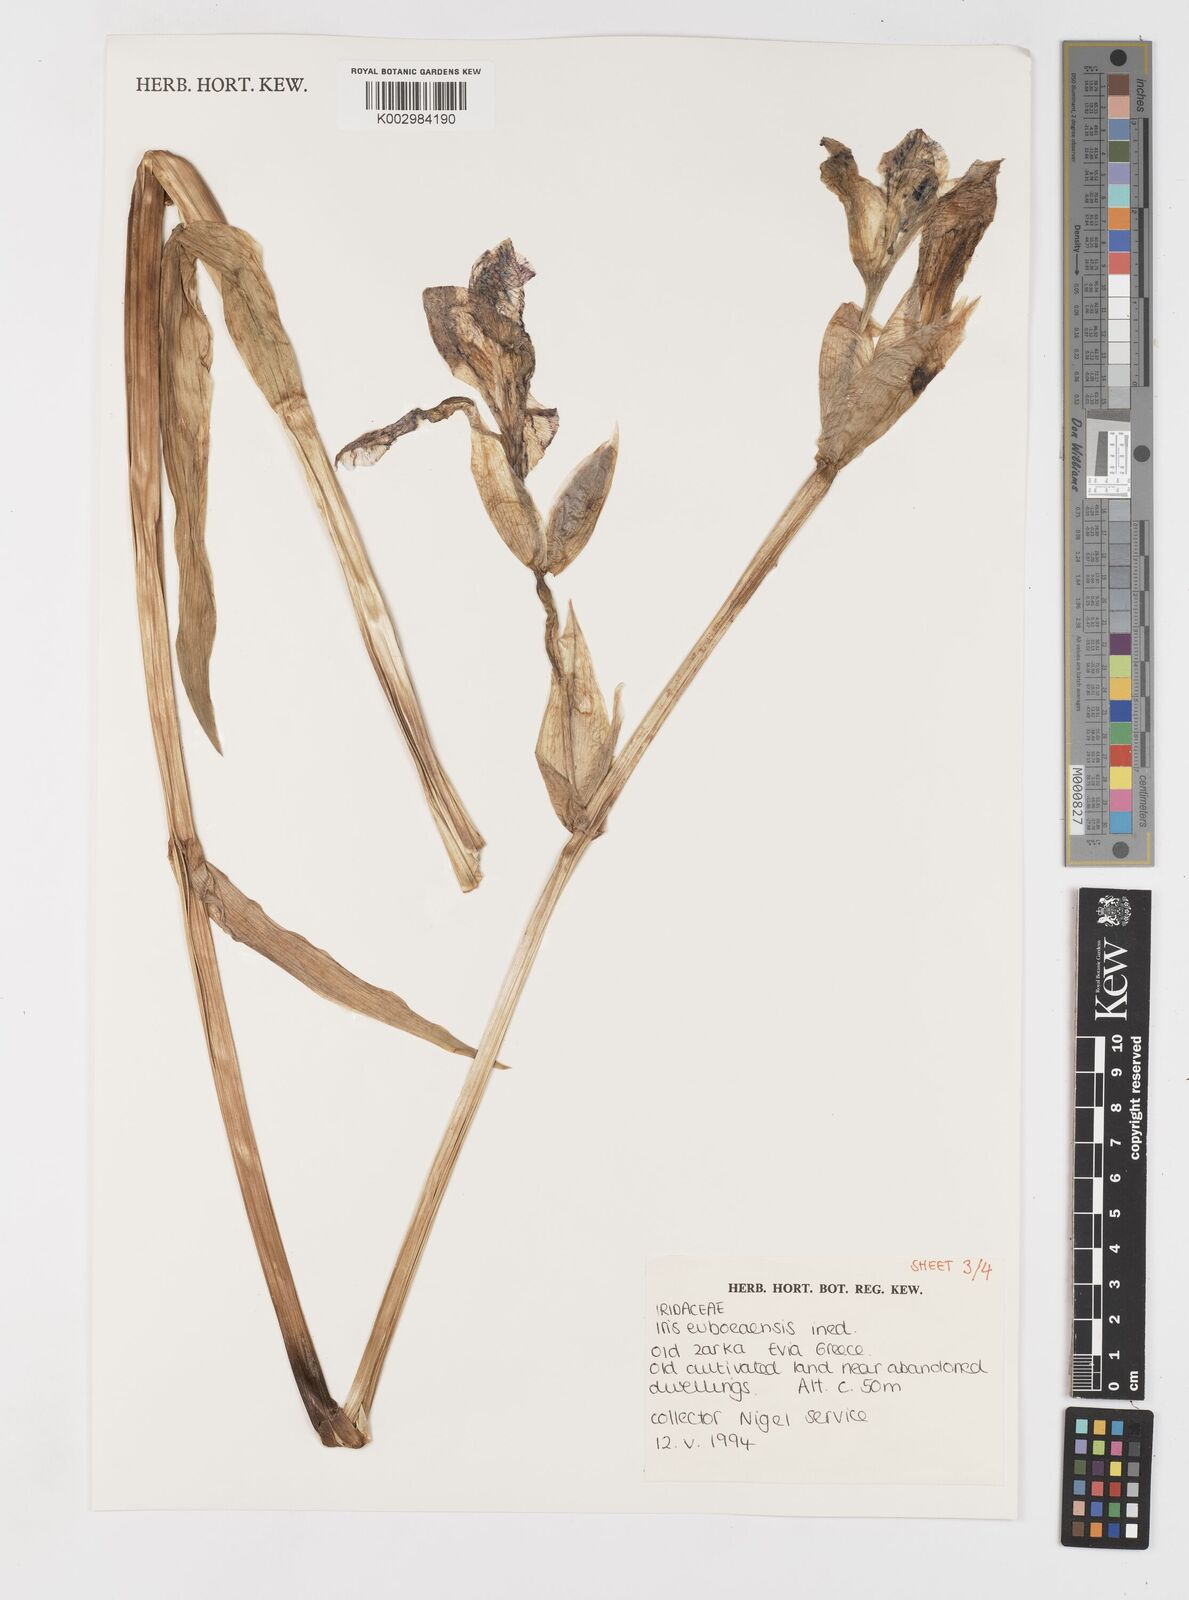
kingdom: Plantae
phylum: Tracheophyta
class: Liliopsida
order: Asparagales
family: Iridaceae
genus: Iris
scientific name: Iris
